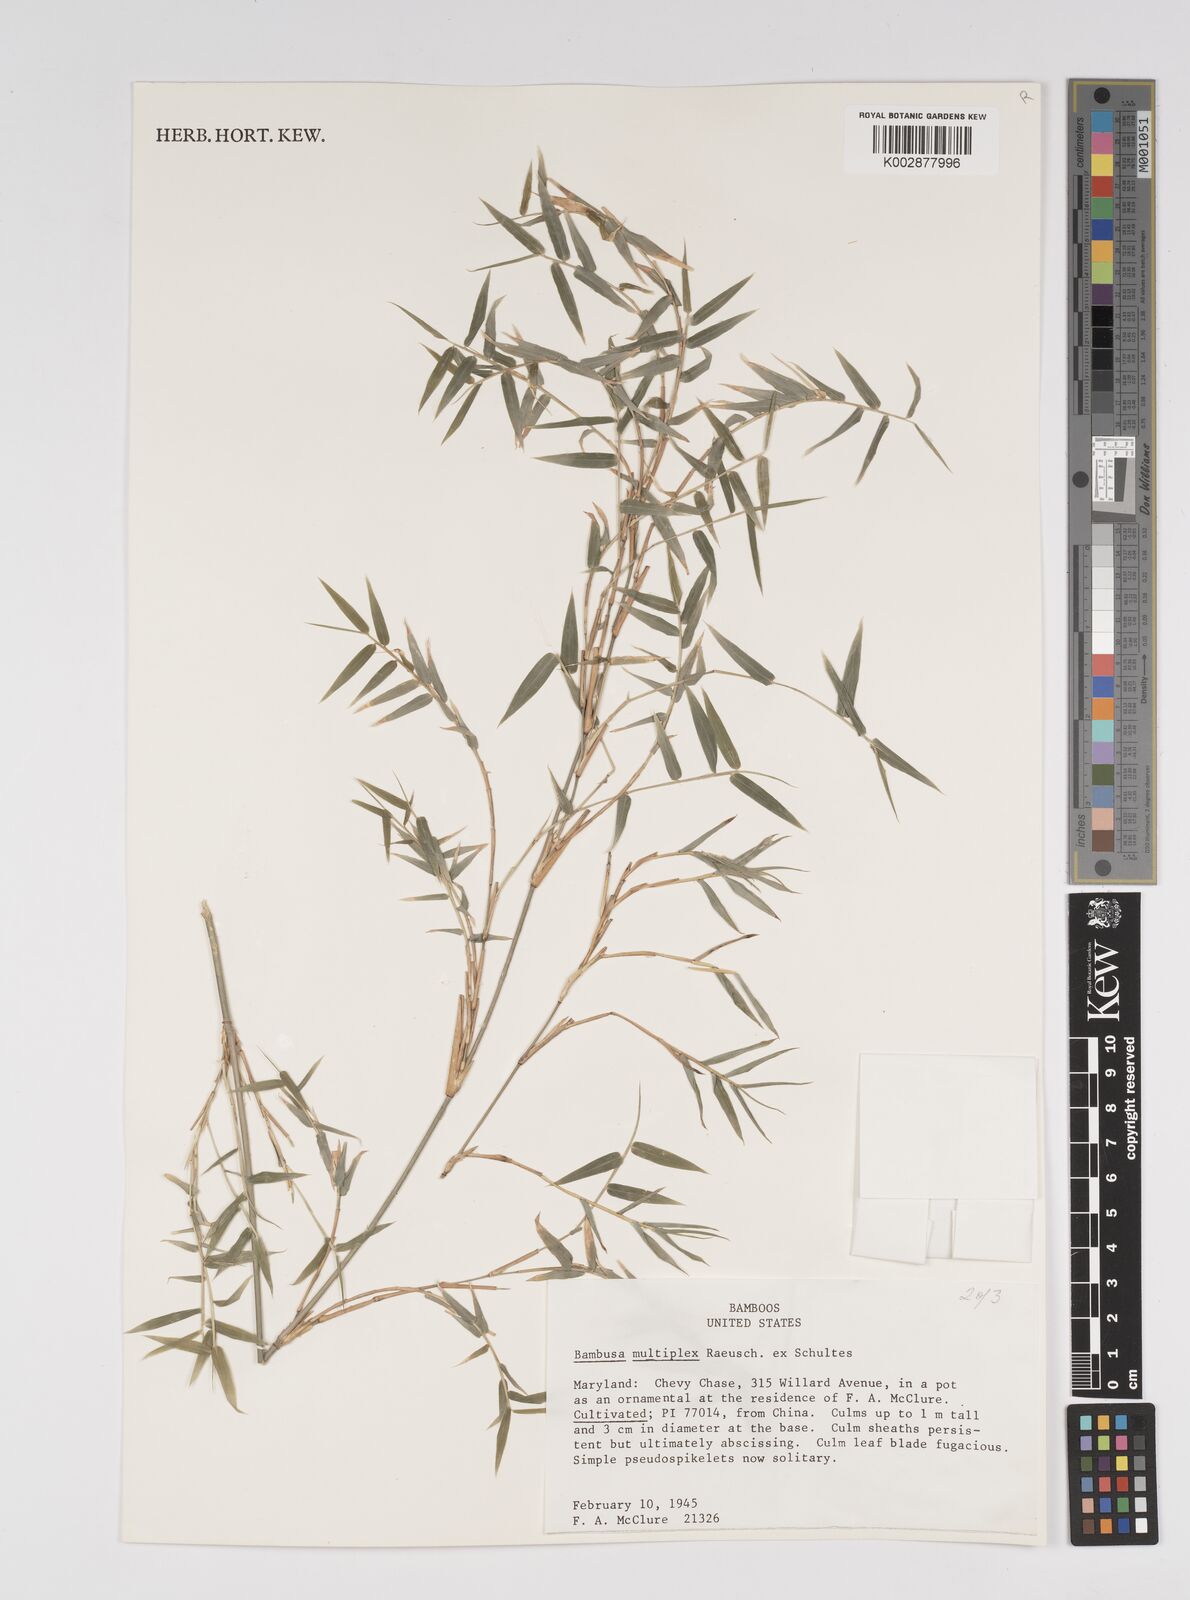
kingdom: Plantae
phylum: Tracheophyta
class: Liliopsida
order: Poales
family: Poaceae
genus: Bambusa
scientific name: Bambusa multiplex
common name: Hedge bamboo
